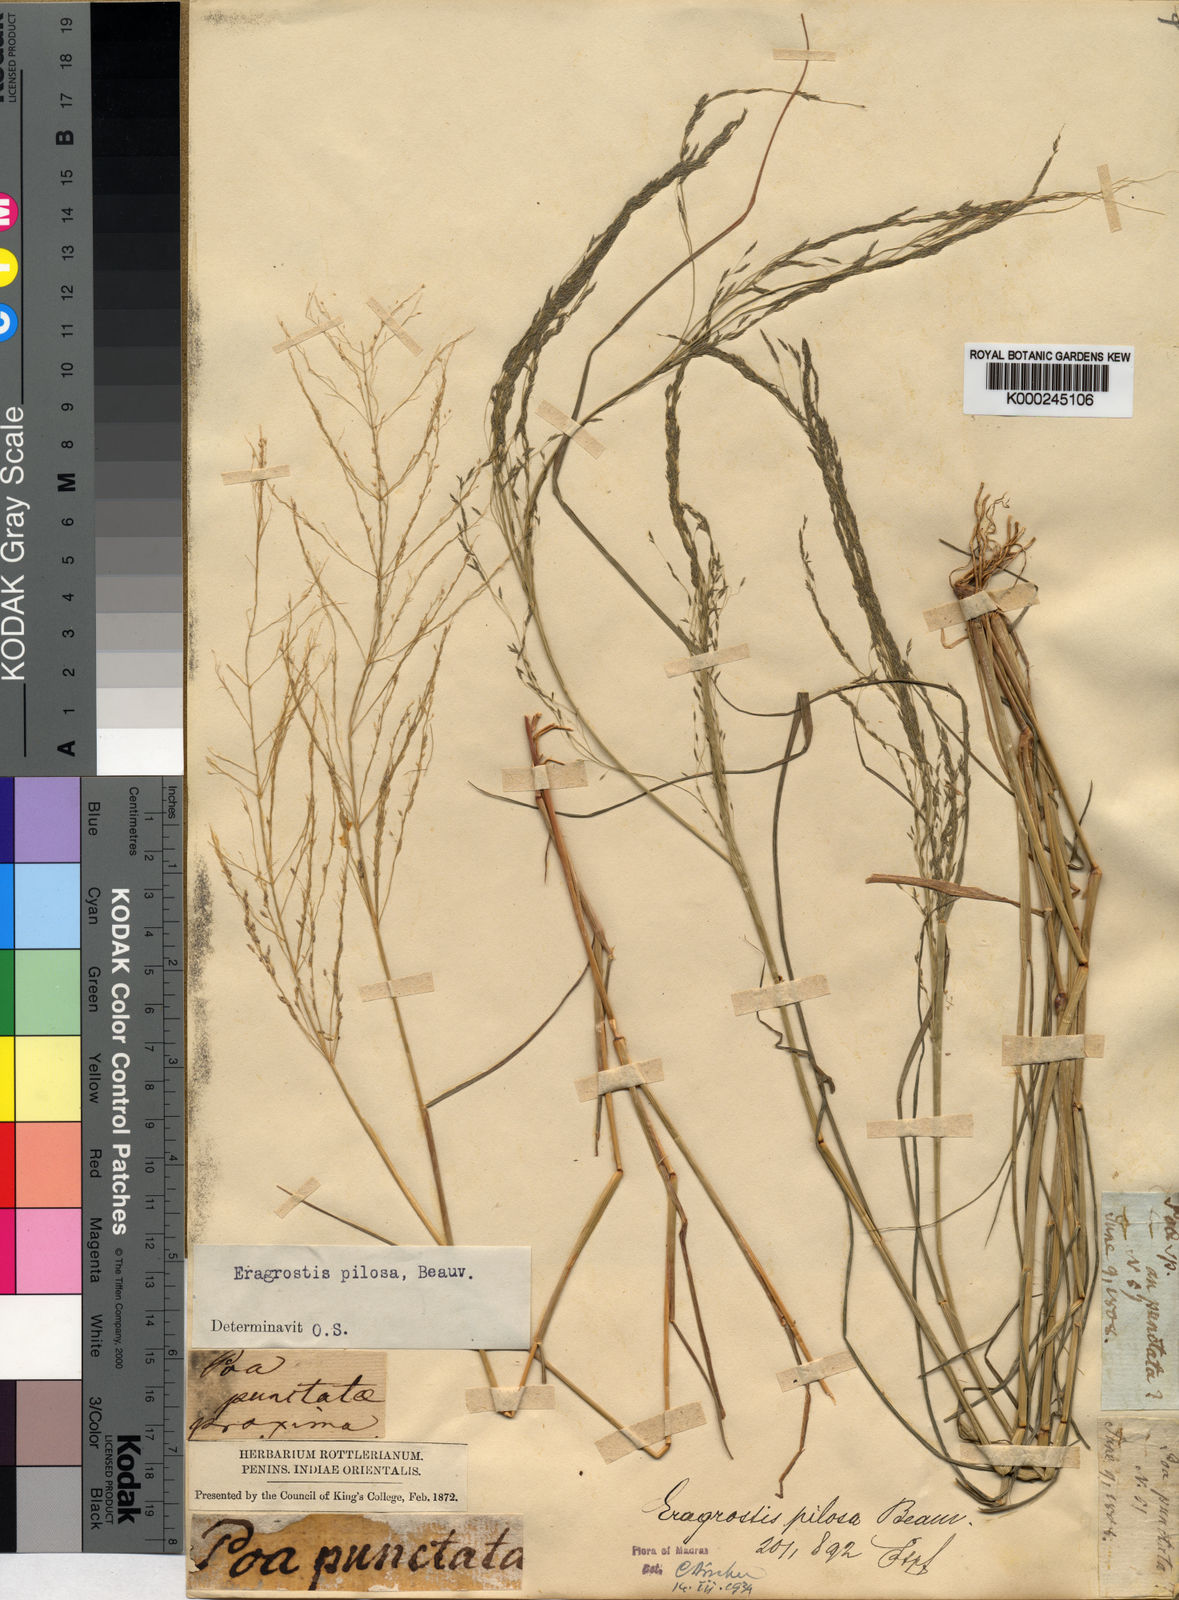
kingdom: Plantae
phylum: Tracheophyta
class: Liliopsida
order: Poales
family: Poaceae
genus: Eragrostis
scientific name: Eragrostis pilosa
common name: Indian lovegrass
